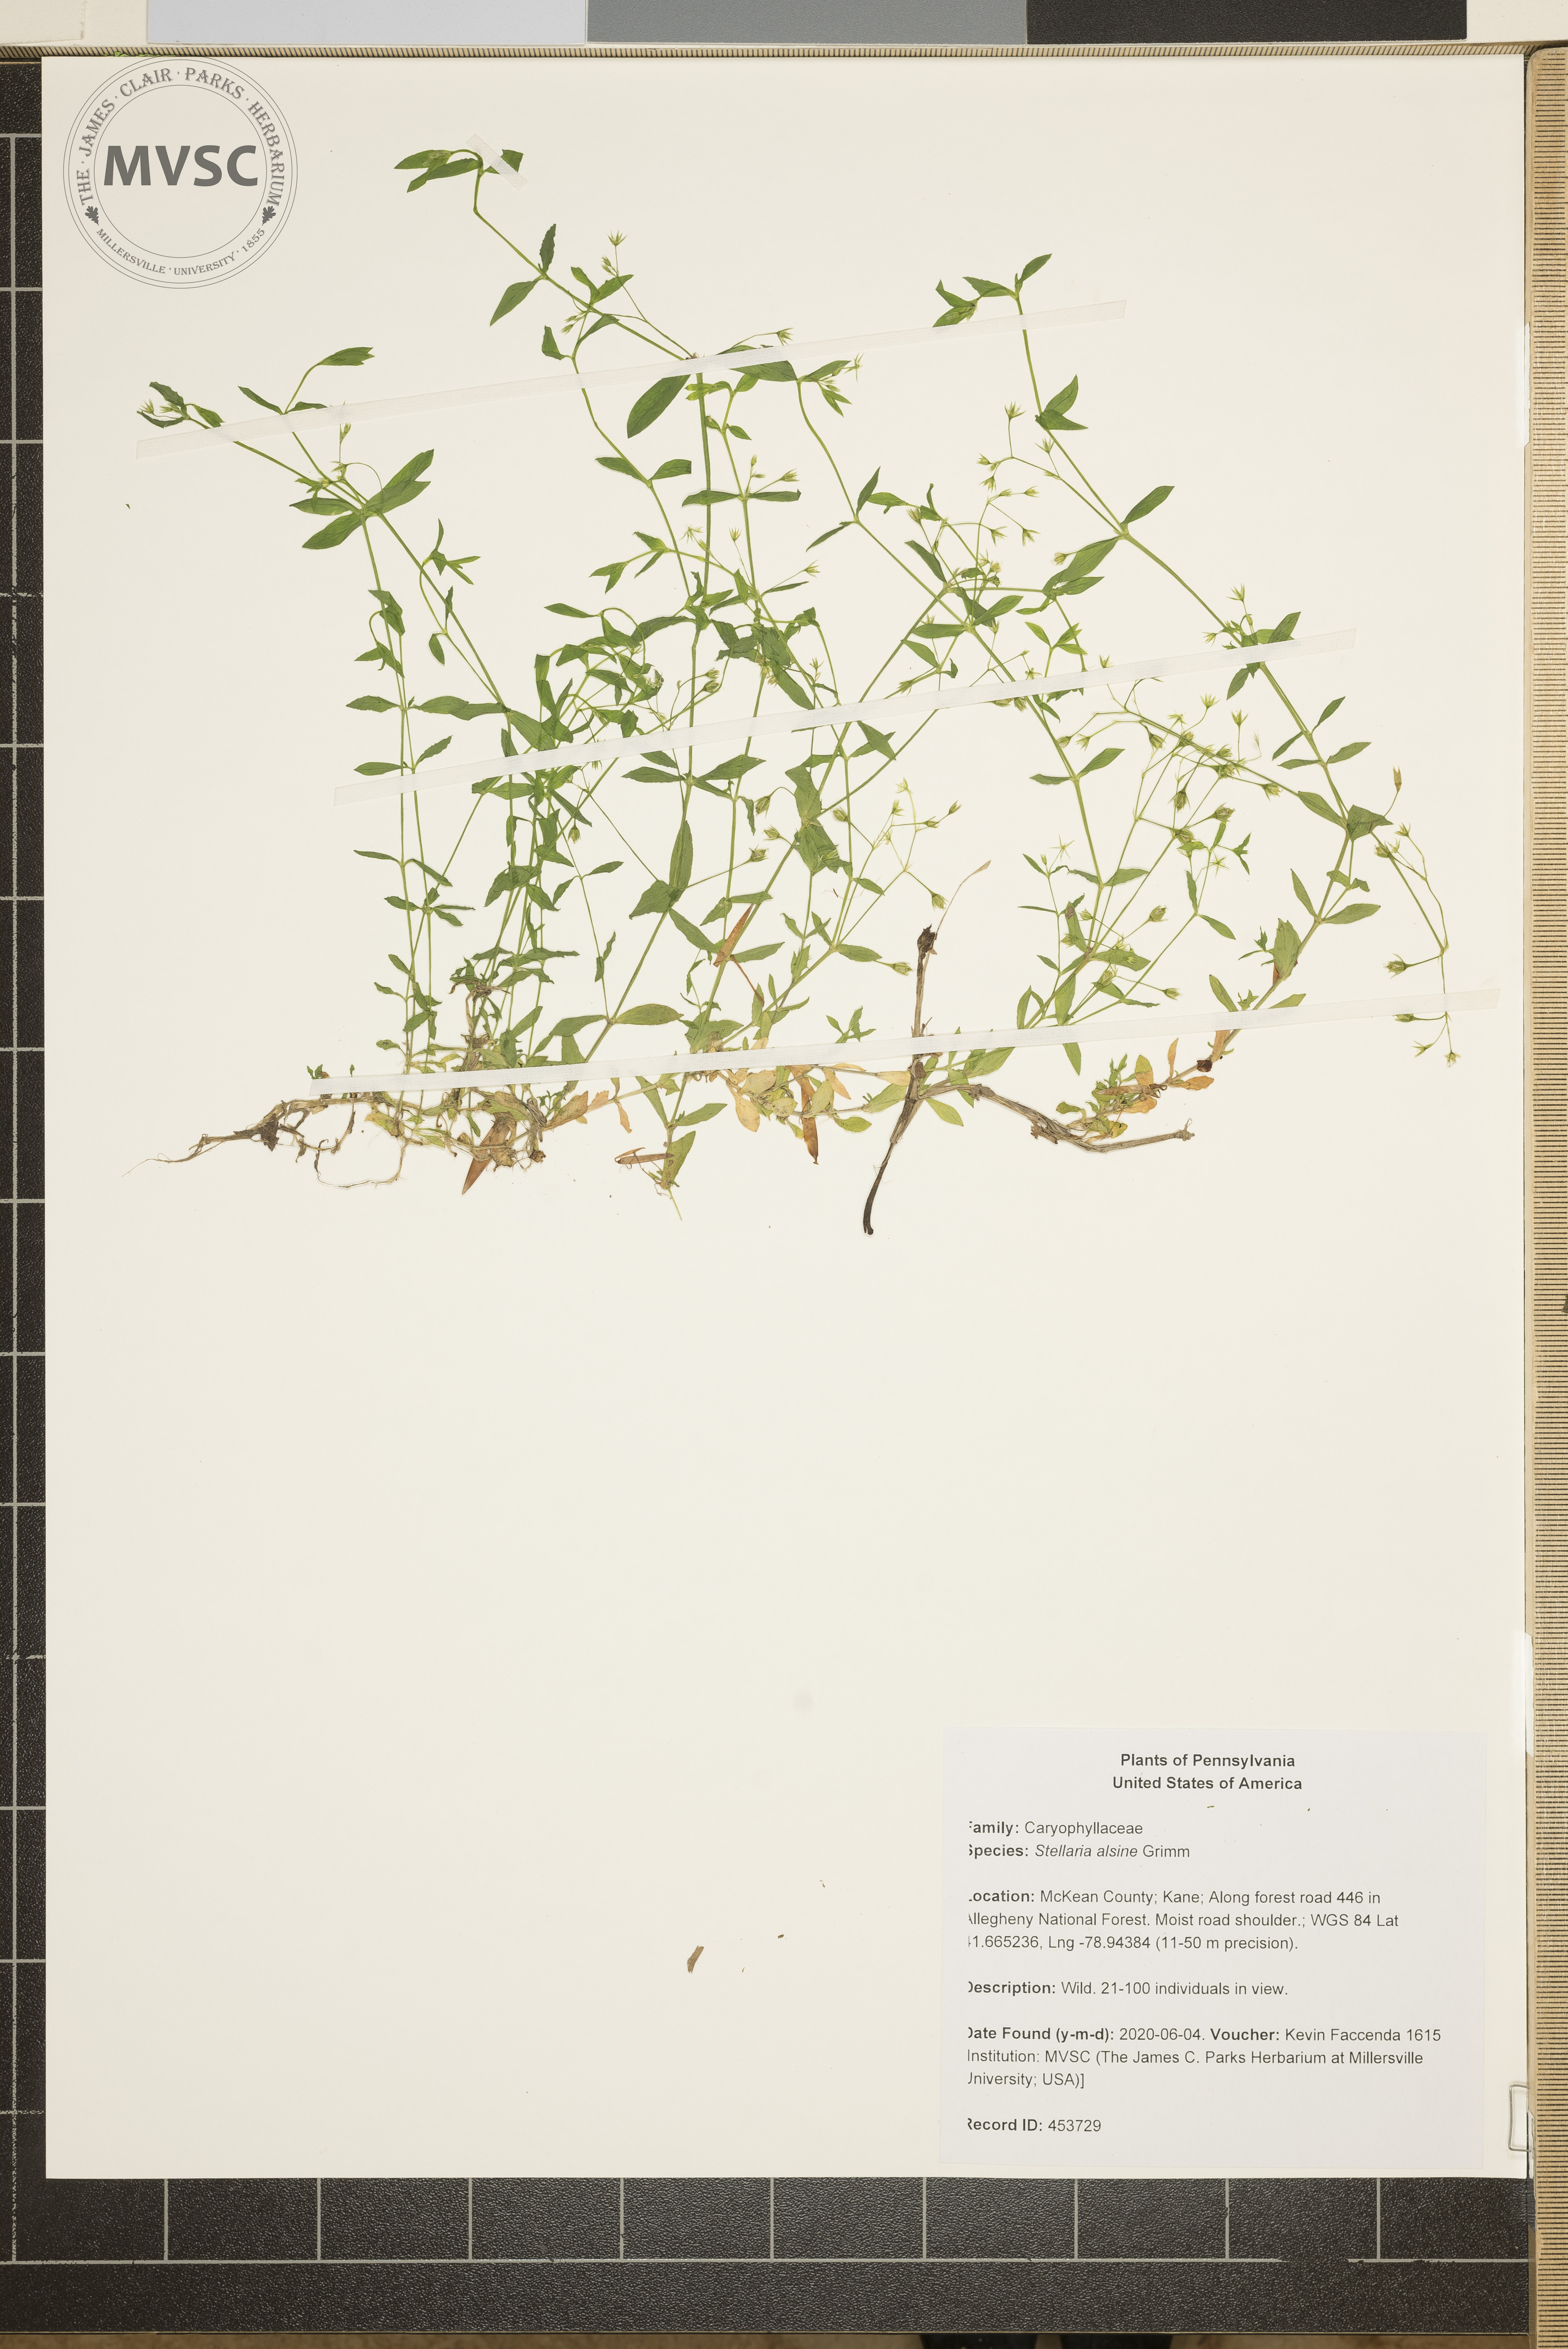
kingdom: Plantae
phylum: Tracheophyta
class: Magnoliopsida
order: Caryophyllales
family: Caryophyllaceae
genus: Stellaria
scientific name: Stellaria alsine
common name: Bog stitchwort
